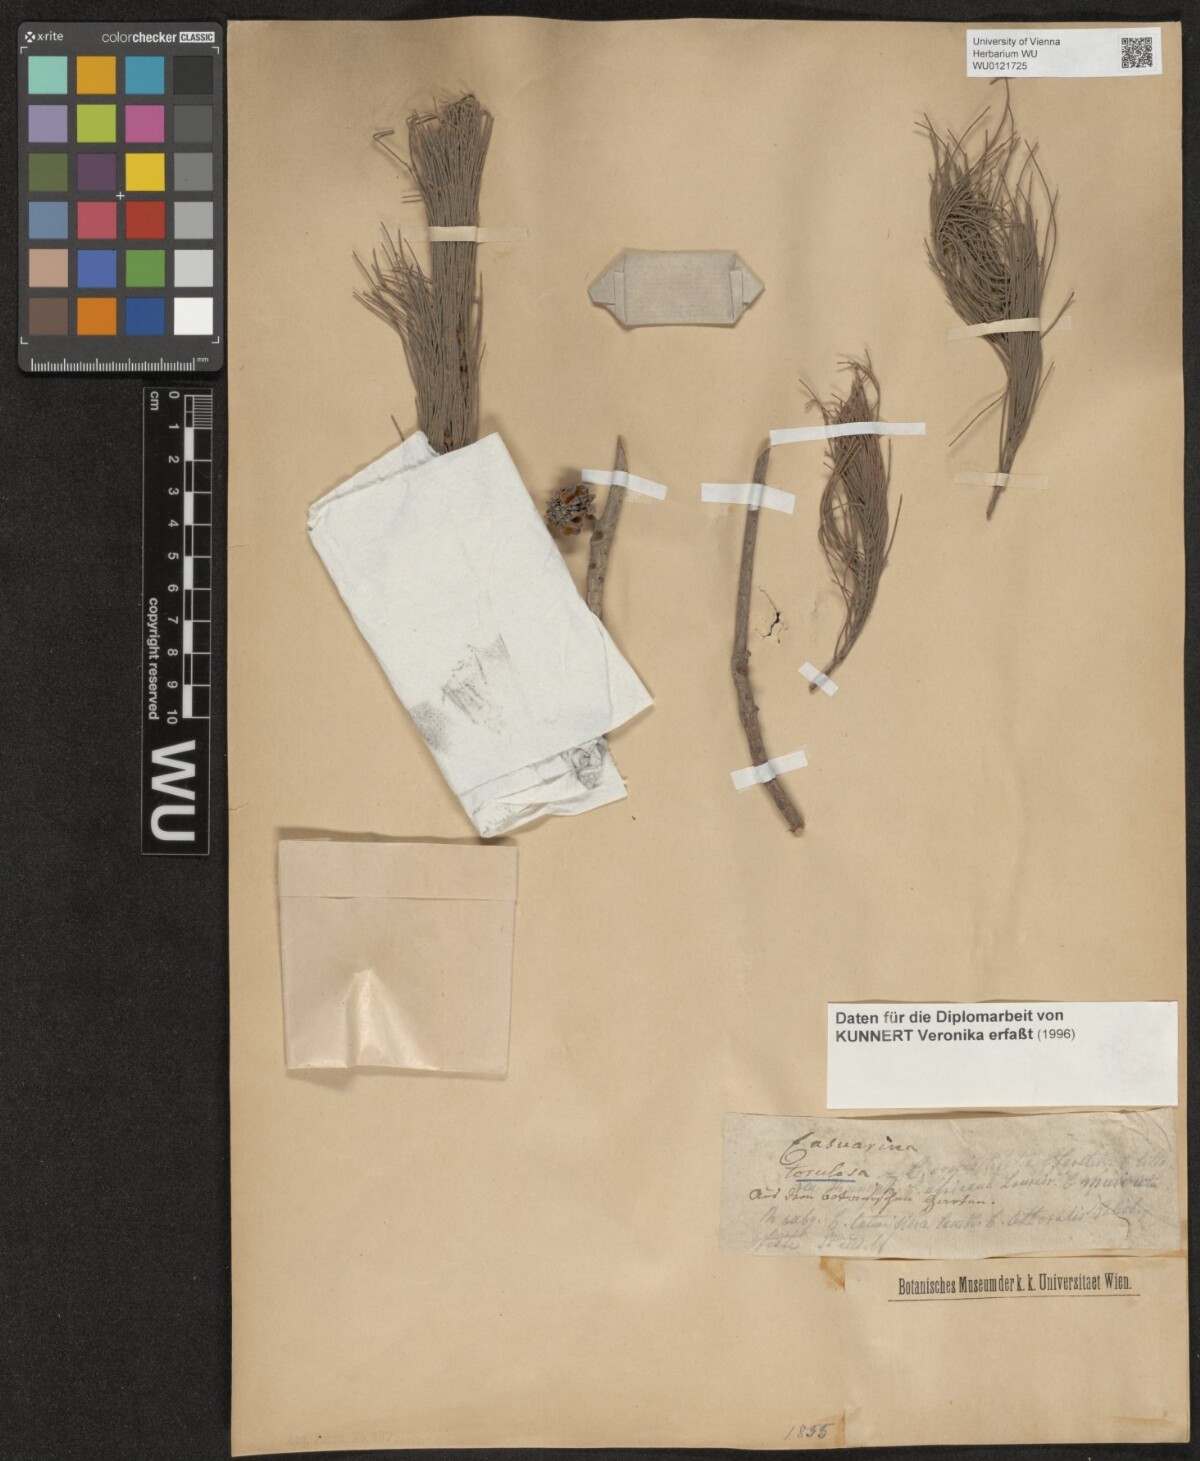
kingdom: Plantae
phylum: Tracheophyta
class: Magnoliopsida
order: Fagales
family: Casuarinaceae
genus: Allocasuarina
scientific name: Allocasuarina torulosa
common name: Forest-oak
